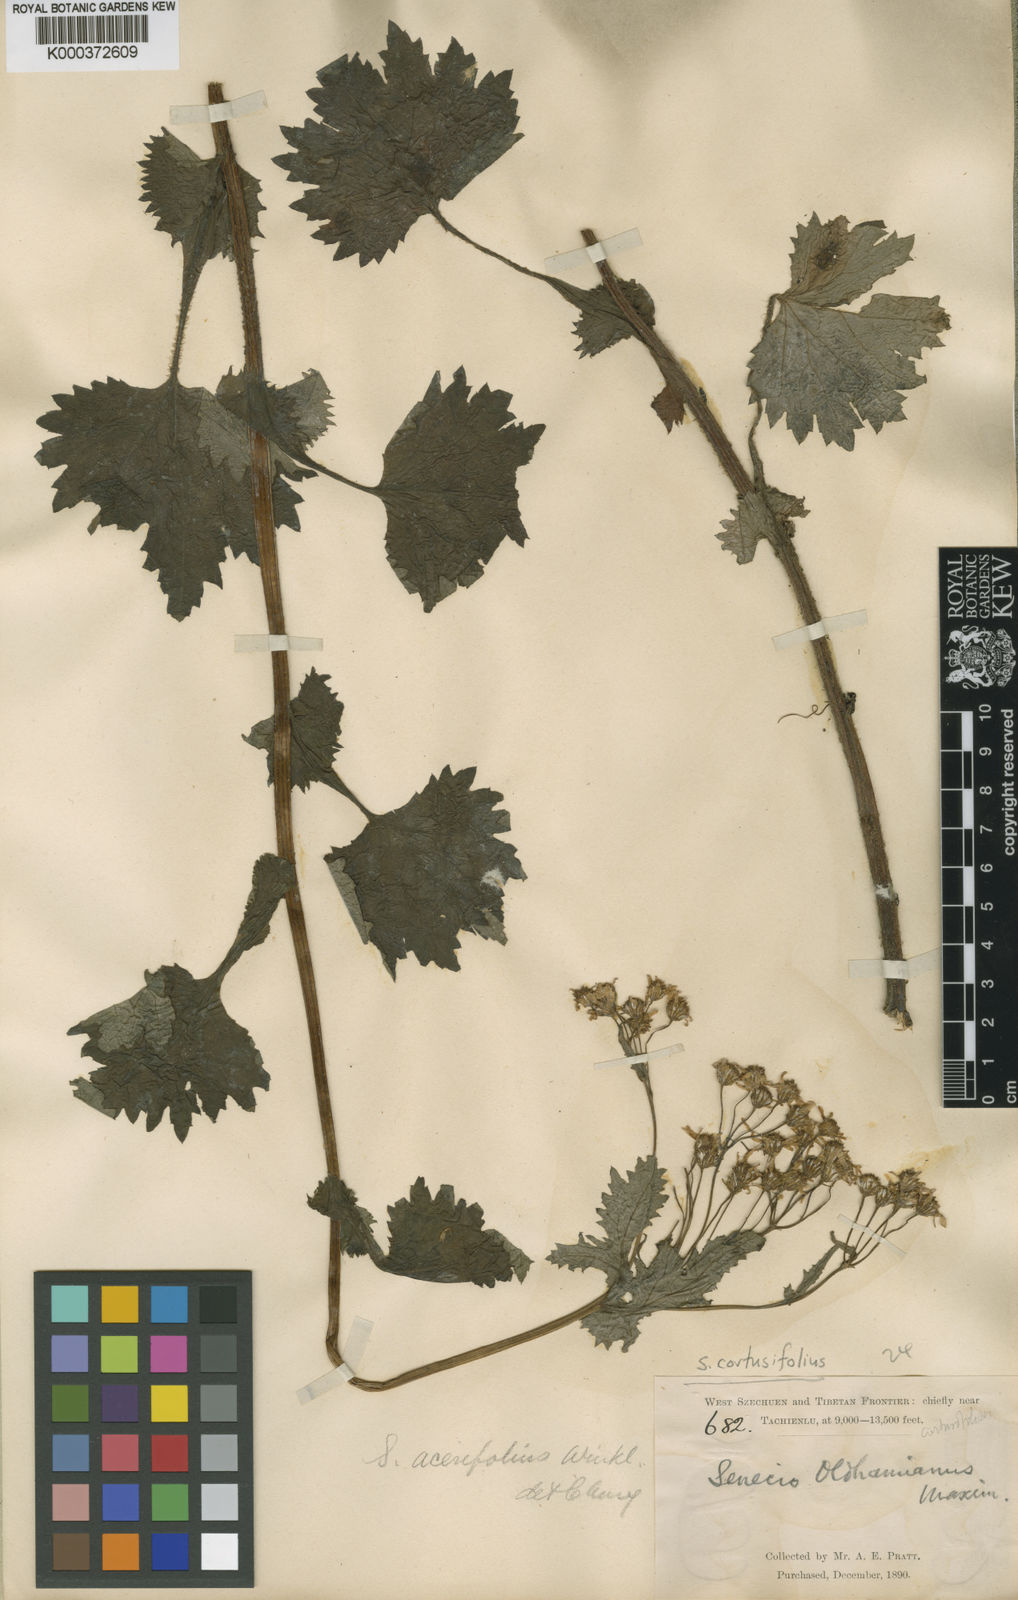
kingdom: Plantae
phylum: Tracheophyta
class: Magnoliopsida
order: Asterales
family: Asteraceae
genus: Sinosenecio
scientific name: Sinosenecio euosmus
